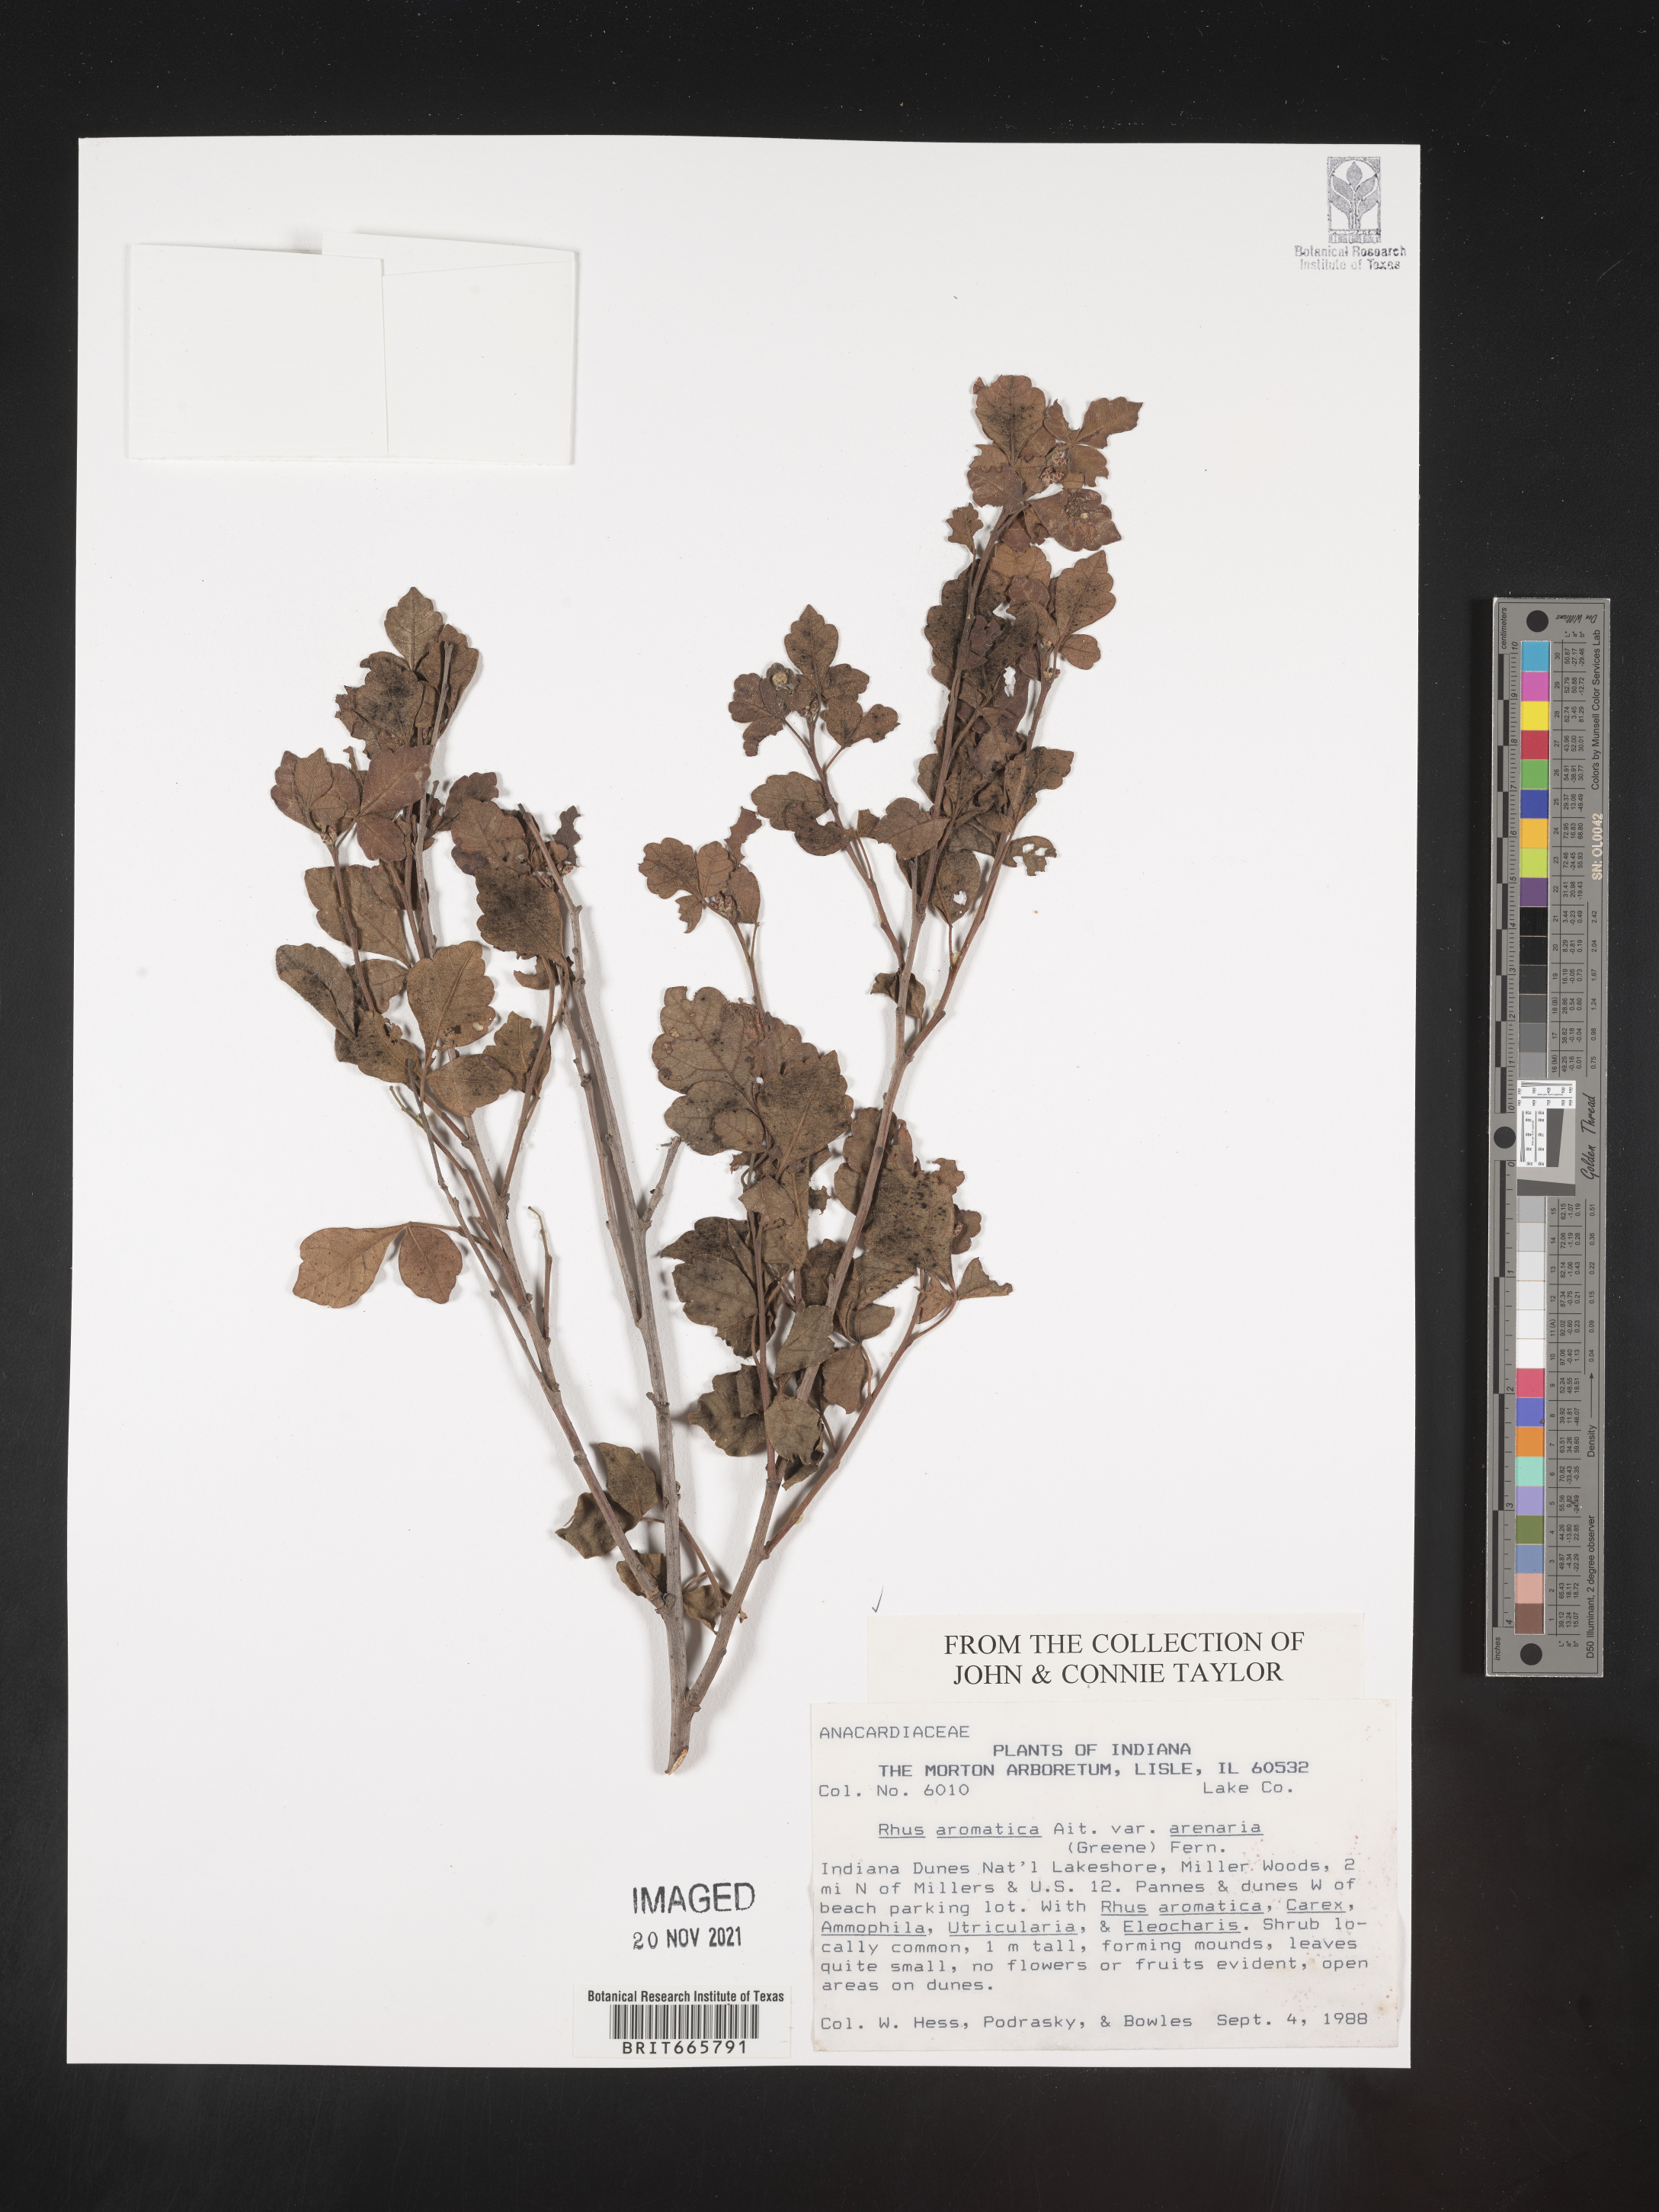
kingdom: Plantae
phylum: Tracheophyta
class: Magnoliopsida
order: Sapindales
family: Anacardiaceae
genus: Rhus
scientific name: Rhus aromatica
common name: Aromatic sumac
